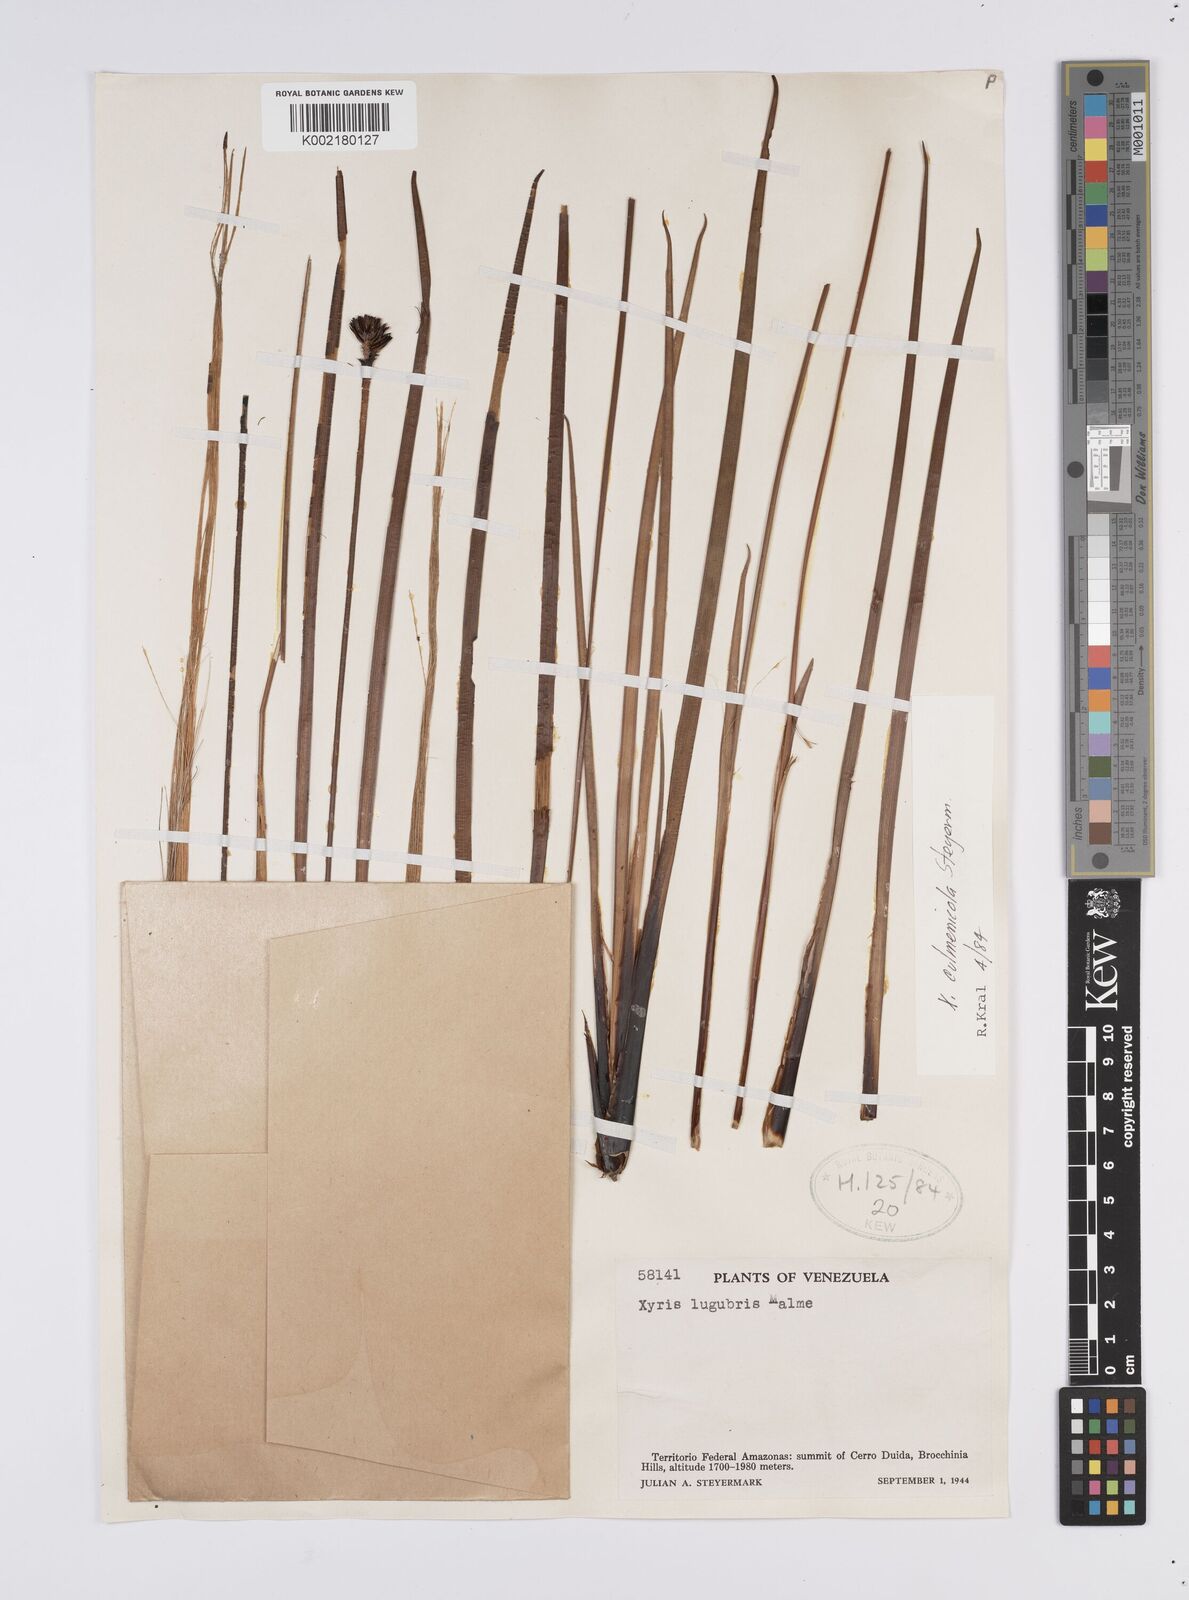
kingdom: Plantae
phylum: Tracheophyta
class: Liliopsida
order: Poales
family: Xyridaceae
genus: Xyris
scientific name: Xyris culmenicola
